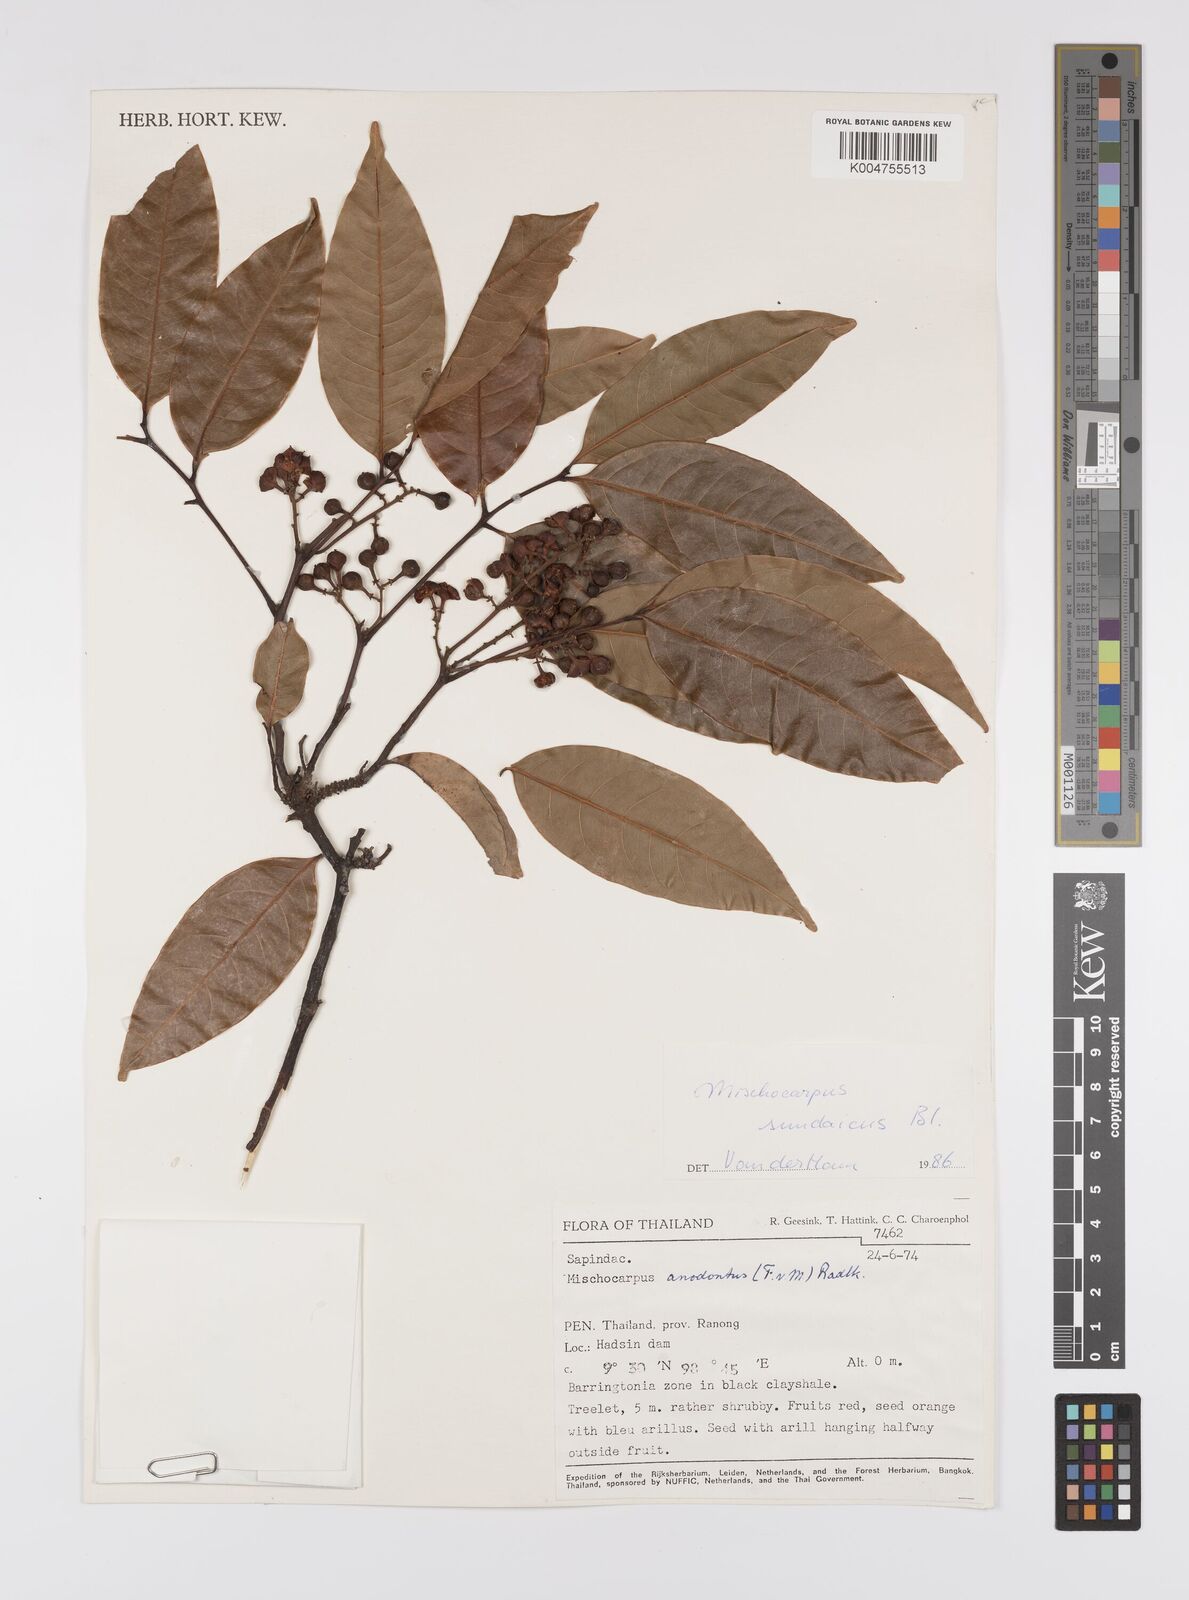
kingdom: Plantae
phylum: Tracheophyta
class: Magnoliopsida
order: Sapindales
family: Sapindaceae
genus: Mischocarpus
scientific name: Mischocarpus sundaicus
